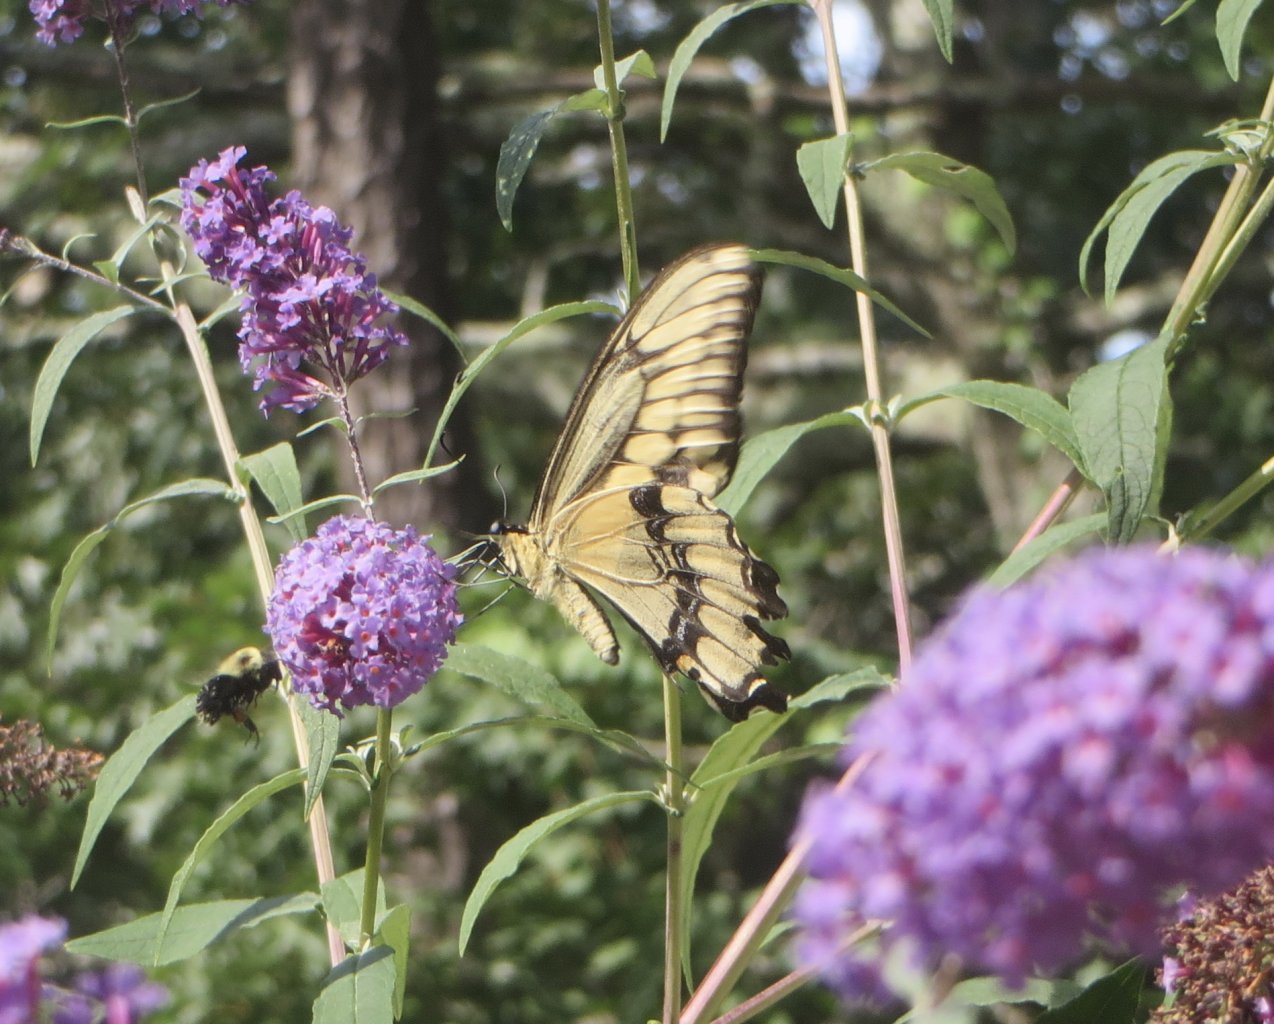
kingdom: Animalia
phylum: Arthropoda
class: Insecta
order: Lepidoptera
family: Papilionidae
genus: Papilio
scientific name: Papilio cresphontes
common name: Eastern Giant Swallowtail
